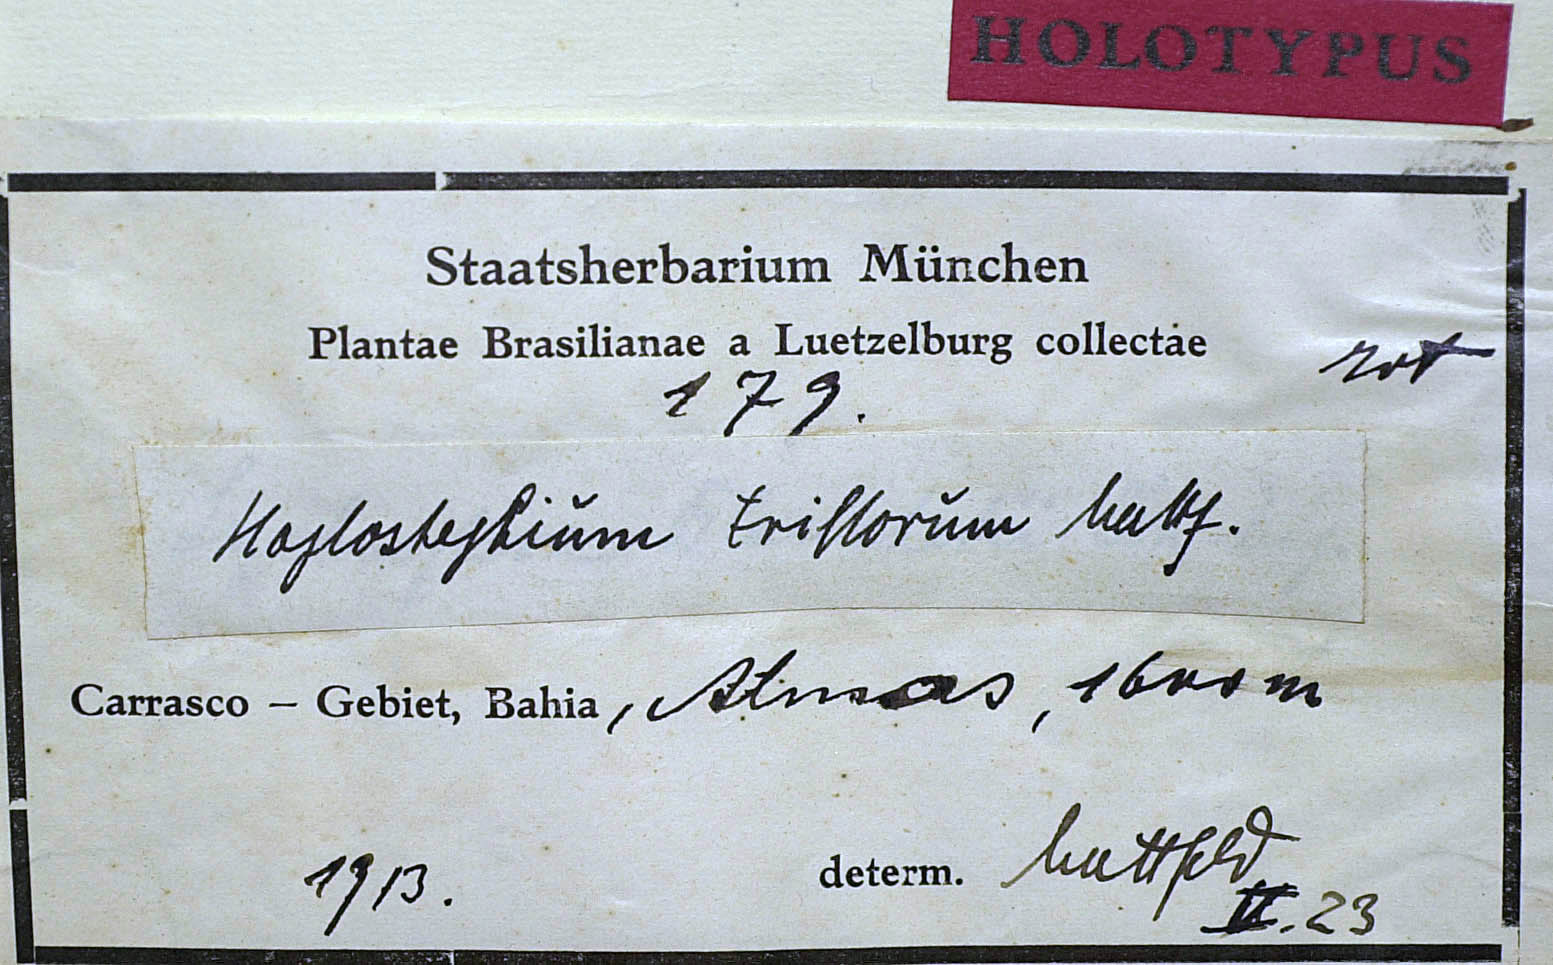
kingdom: Plantae
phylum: Tracheophyta
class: Magnoliopsida
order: Asterales
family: Asteraceae
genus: Lychnophorella
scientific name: Lychnophorella triflora
